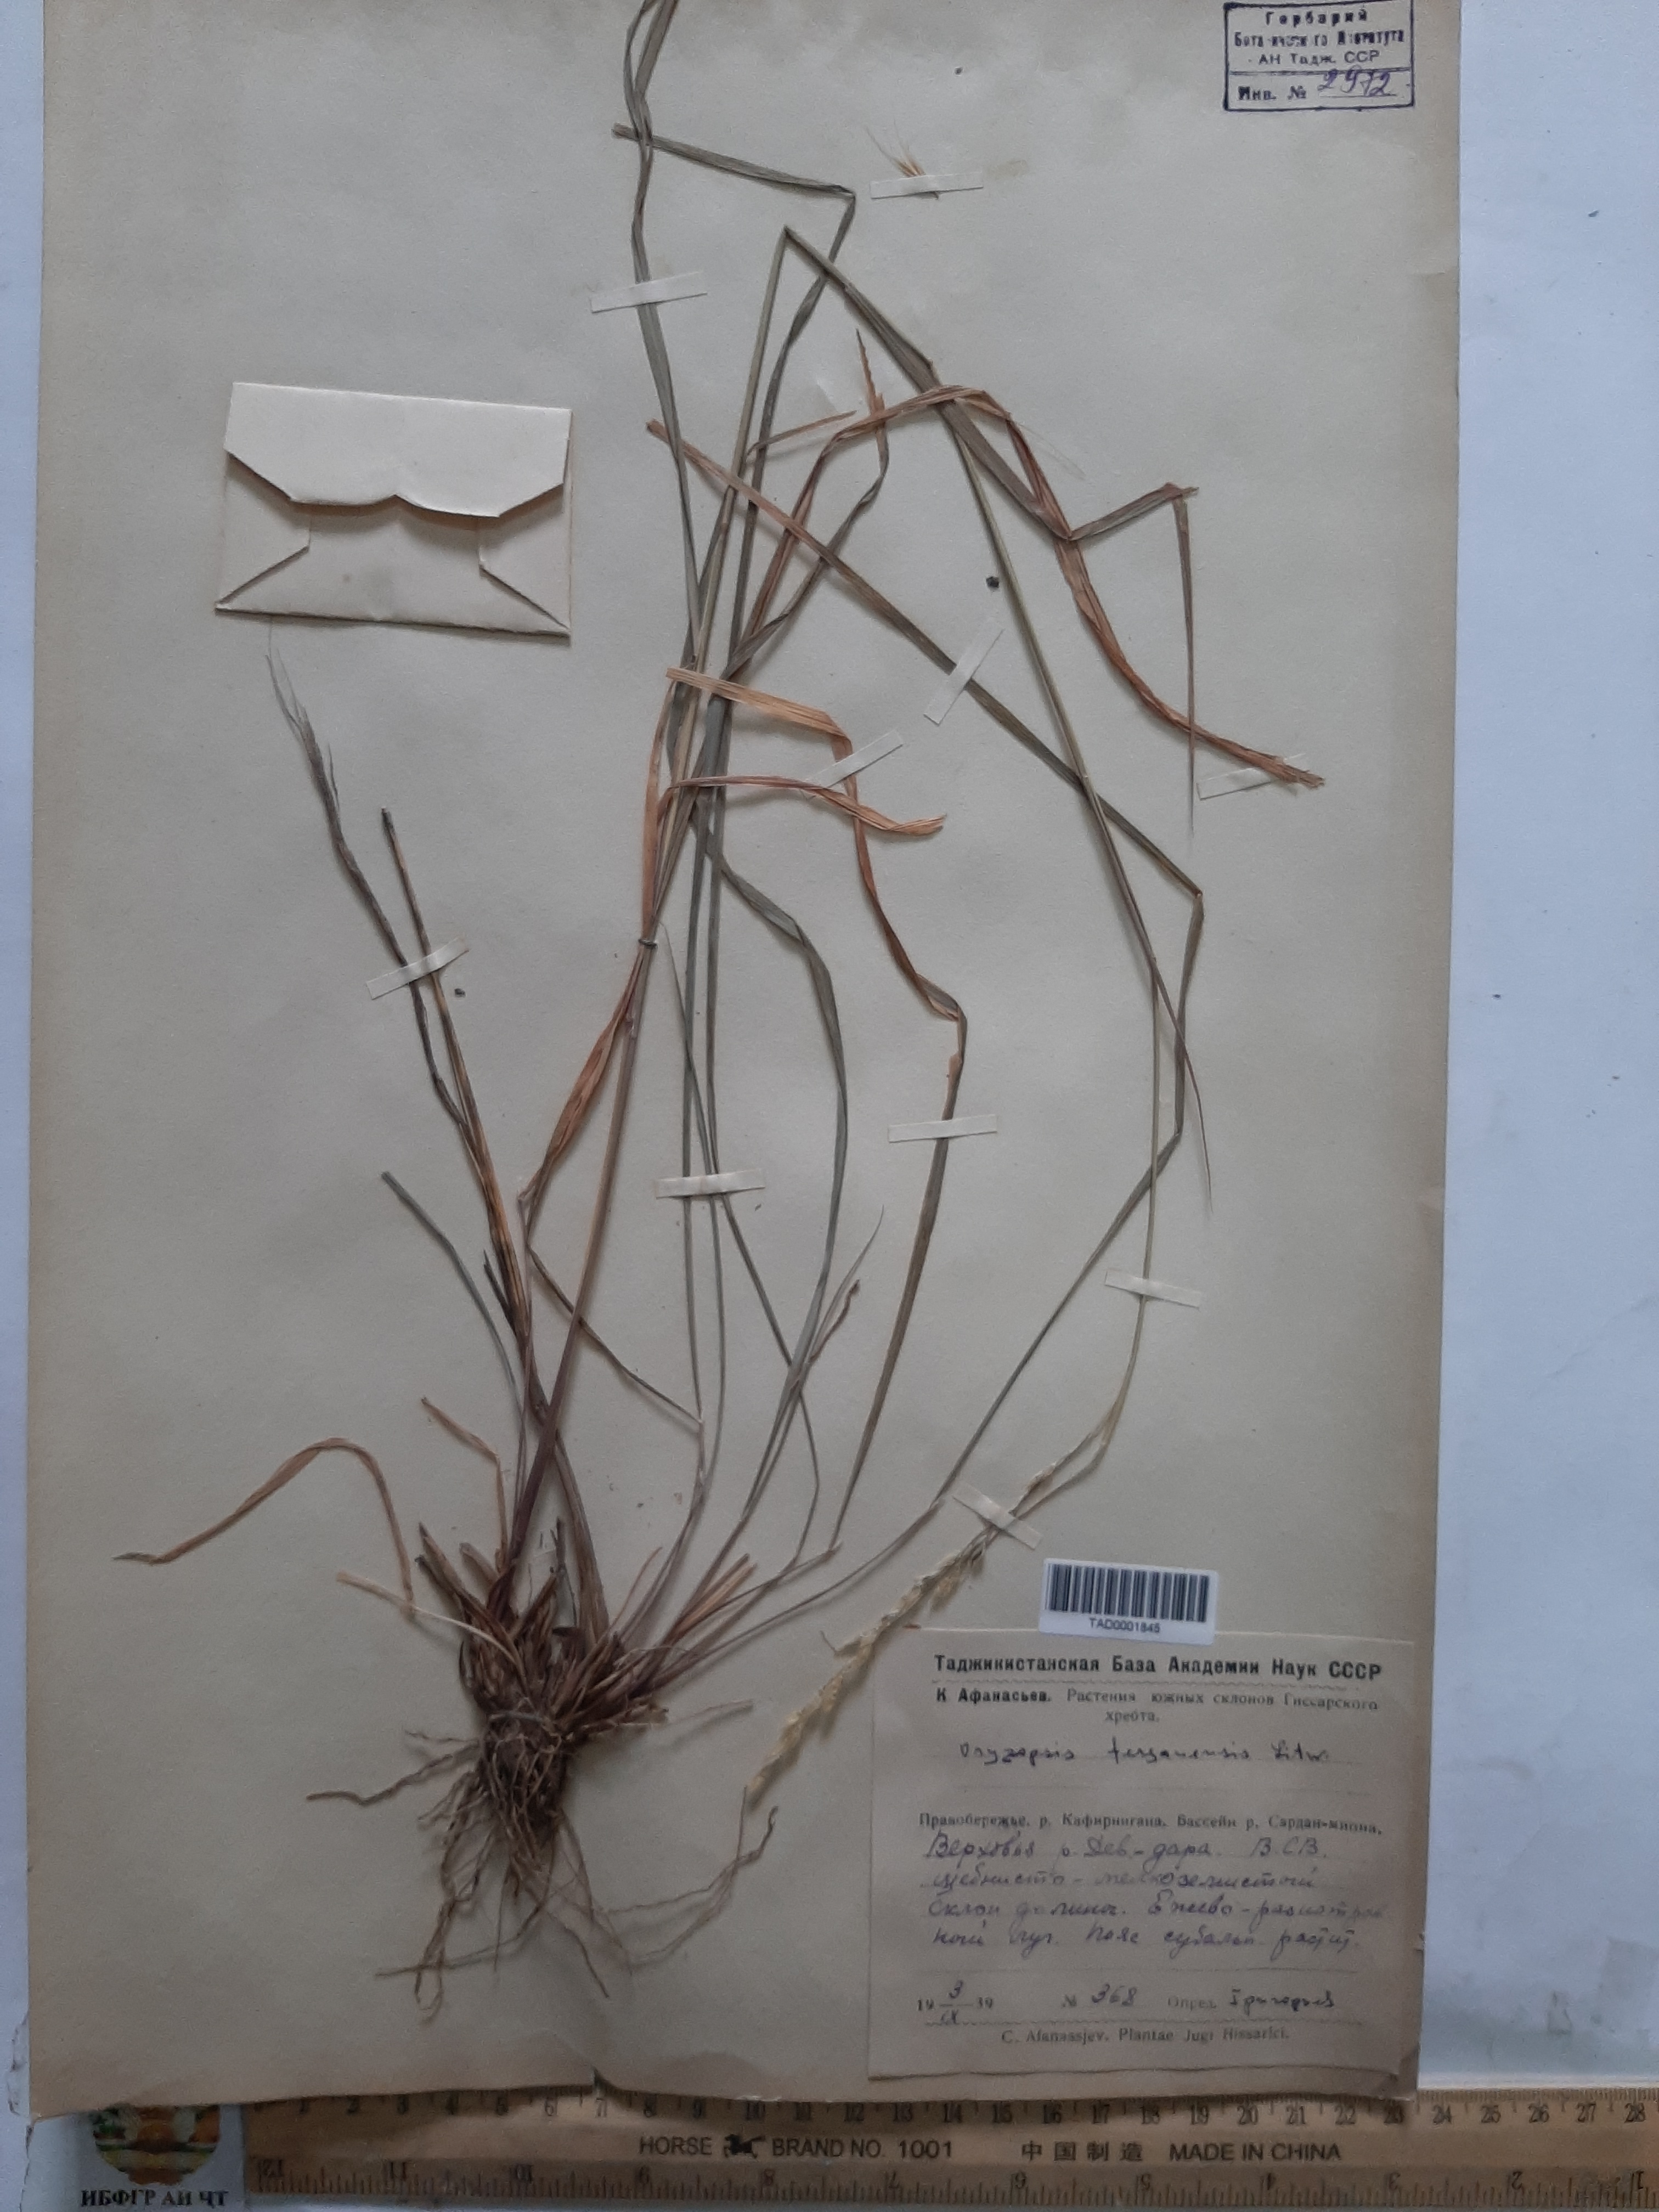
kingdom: Plantae
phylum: Tracheophyta
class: Liliopsida
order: Poales
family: Poaceae
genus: Piptatherum
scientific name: Piptatherum sogdianum
